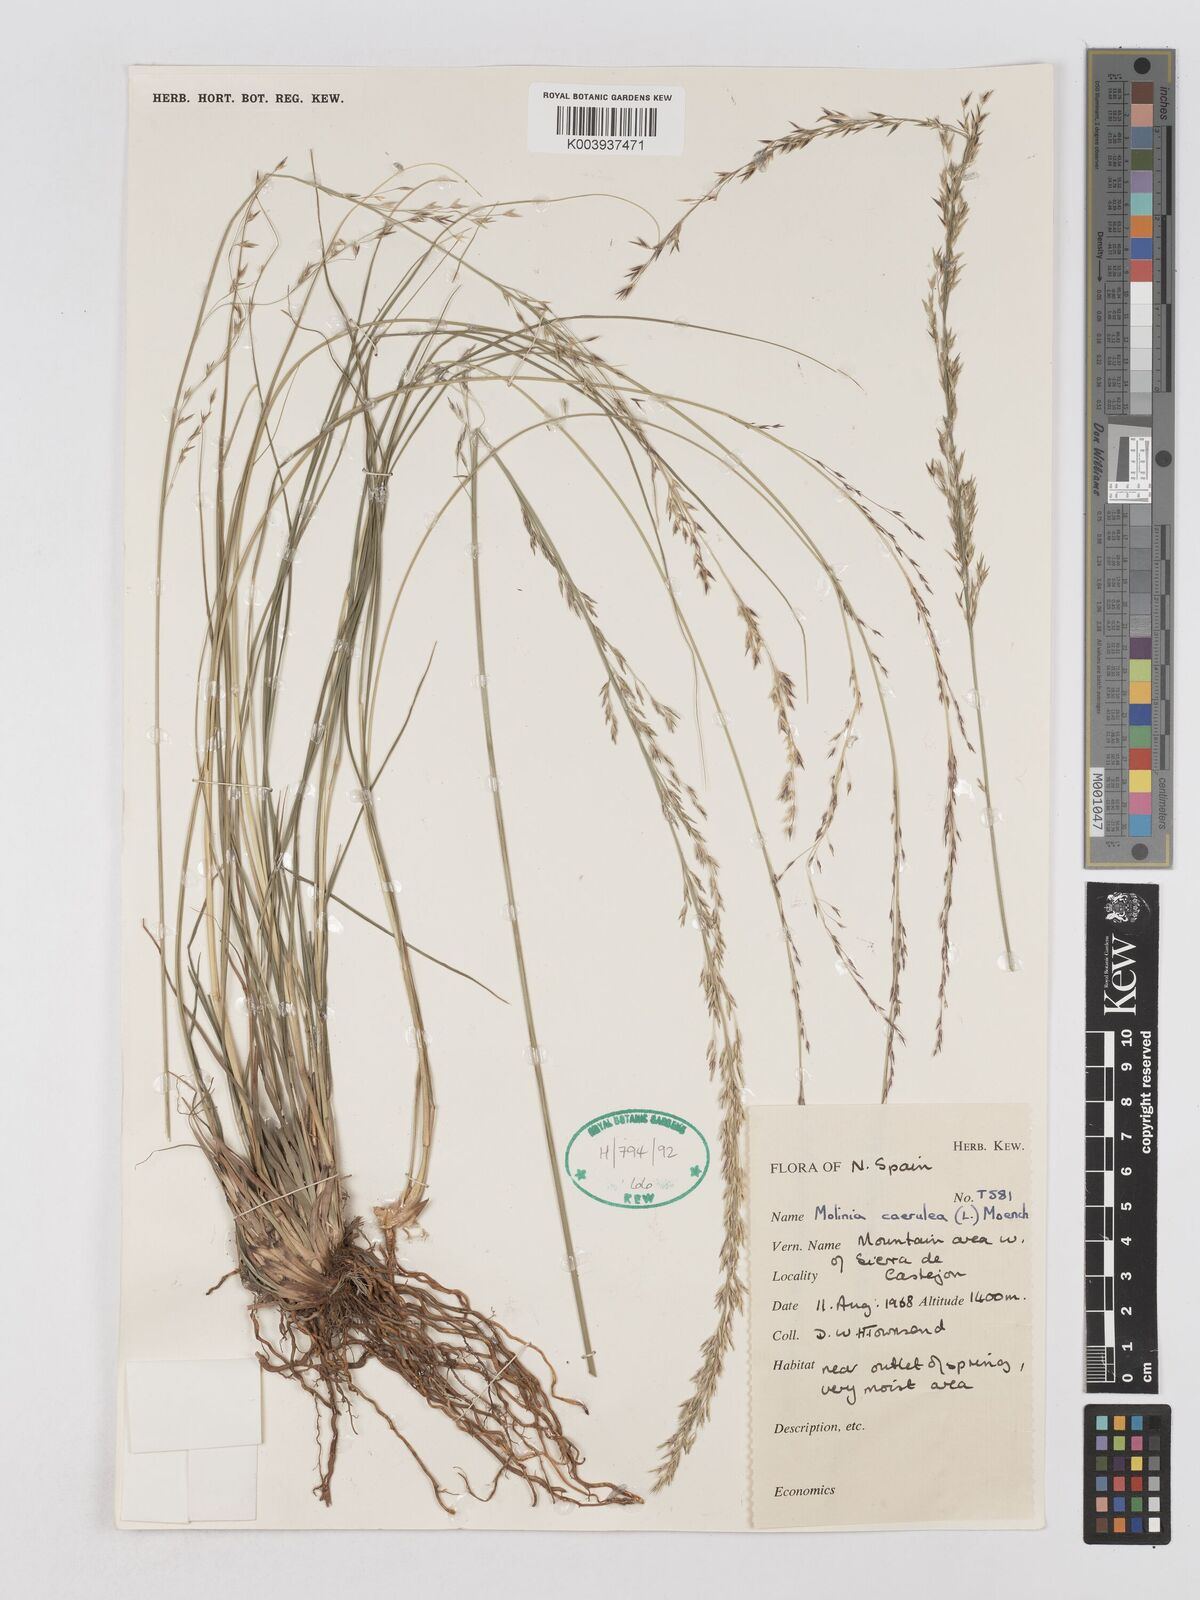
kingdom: Plantae
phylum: Tracheophyta
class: Liliopsida
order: Poales
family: Poaceae
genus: Molinia
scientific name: Molinia caerulea
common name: Purple moor-grass
